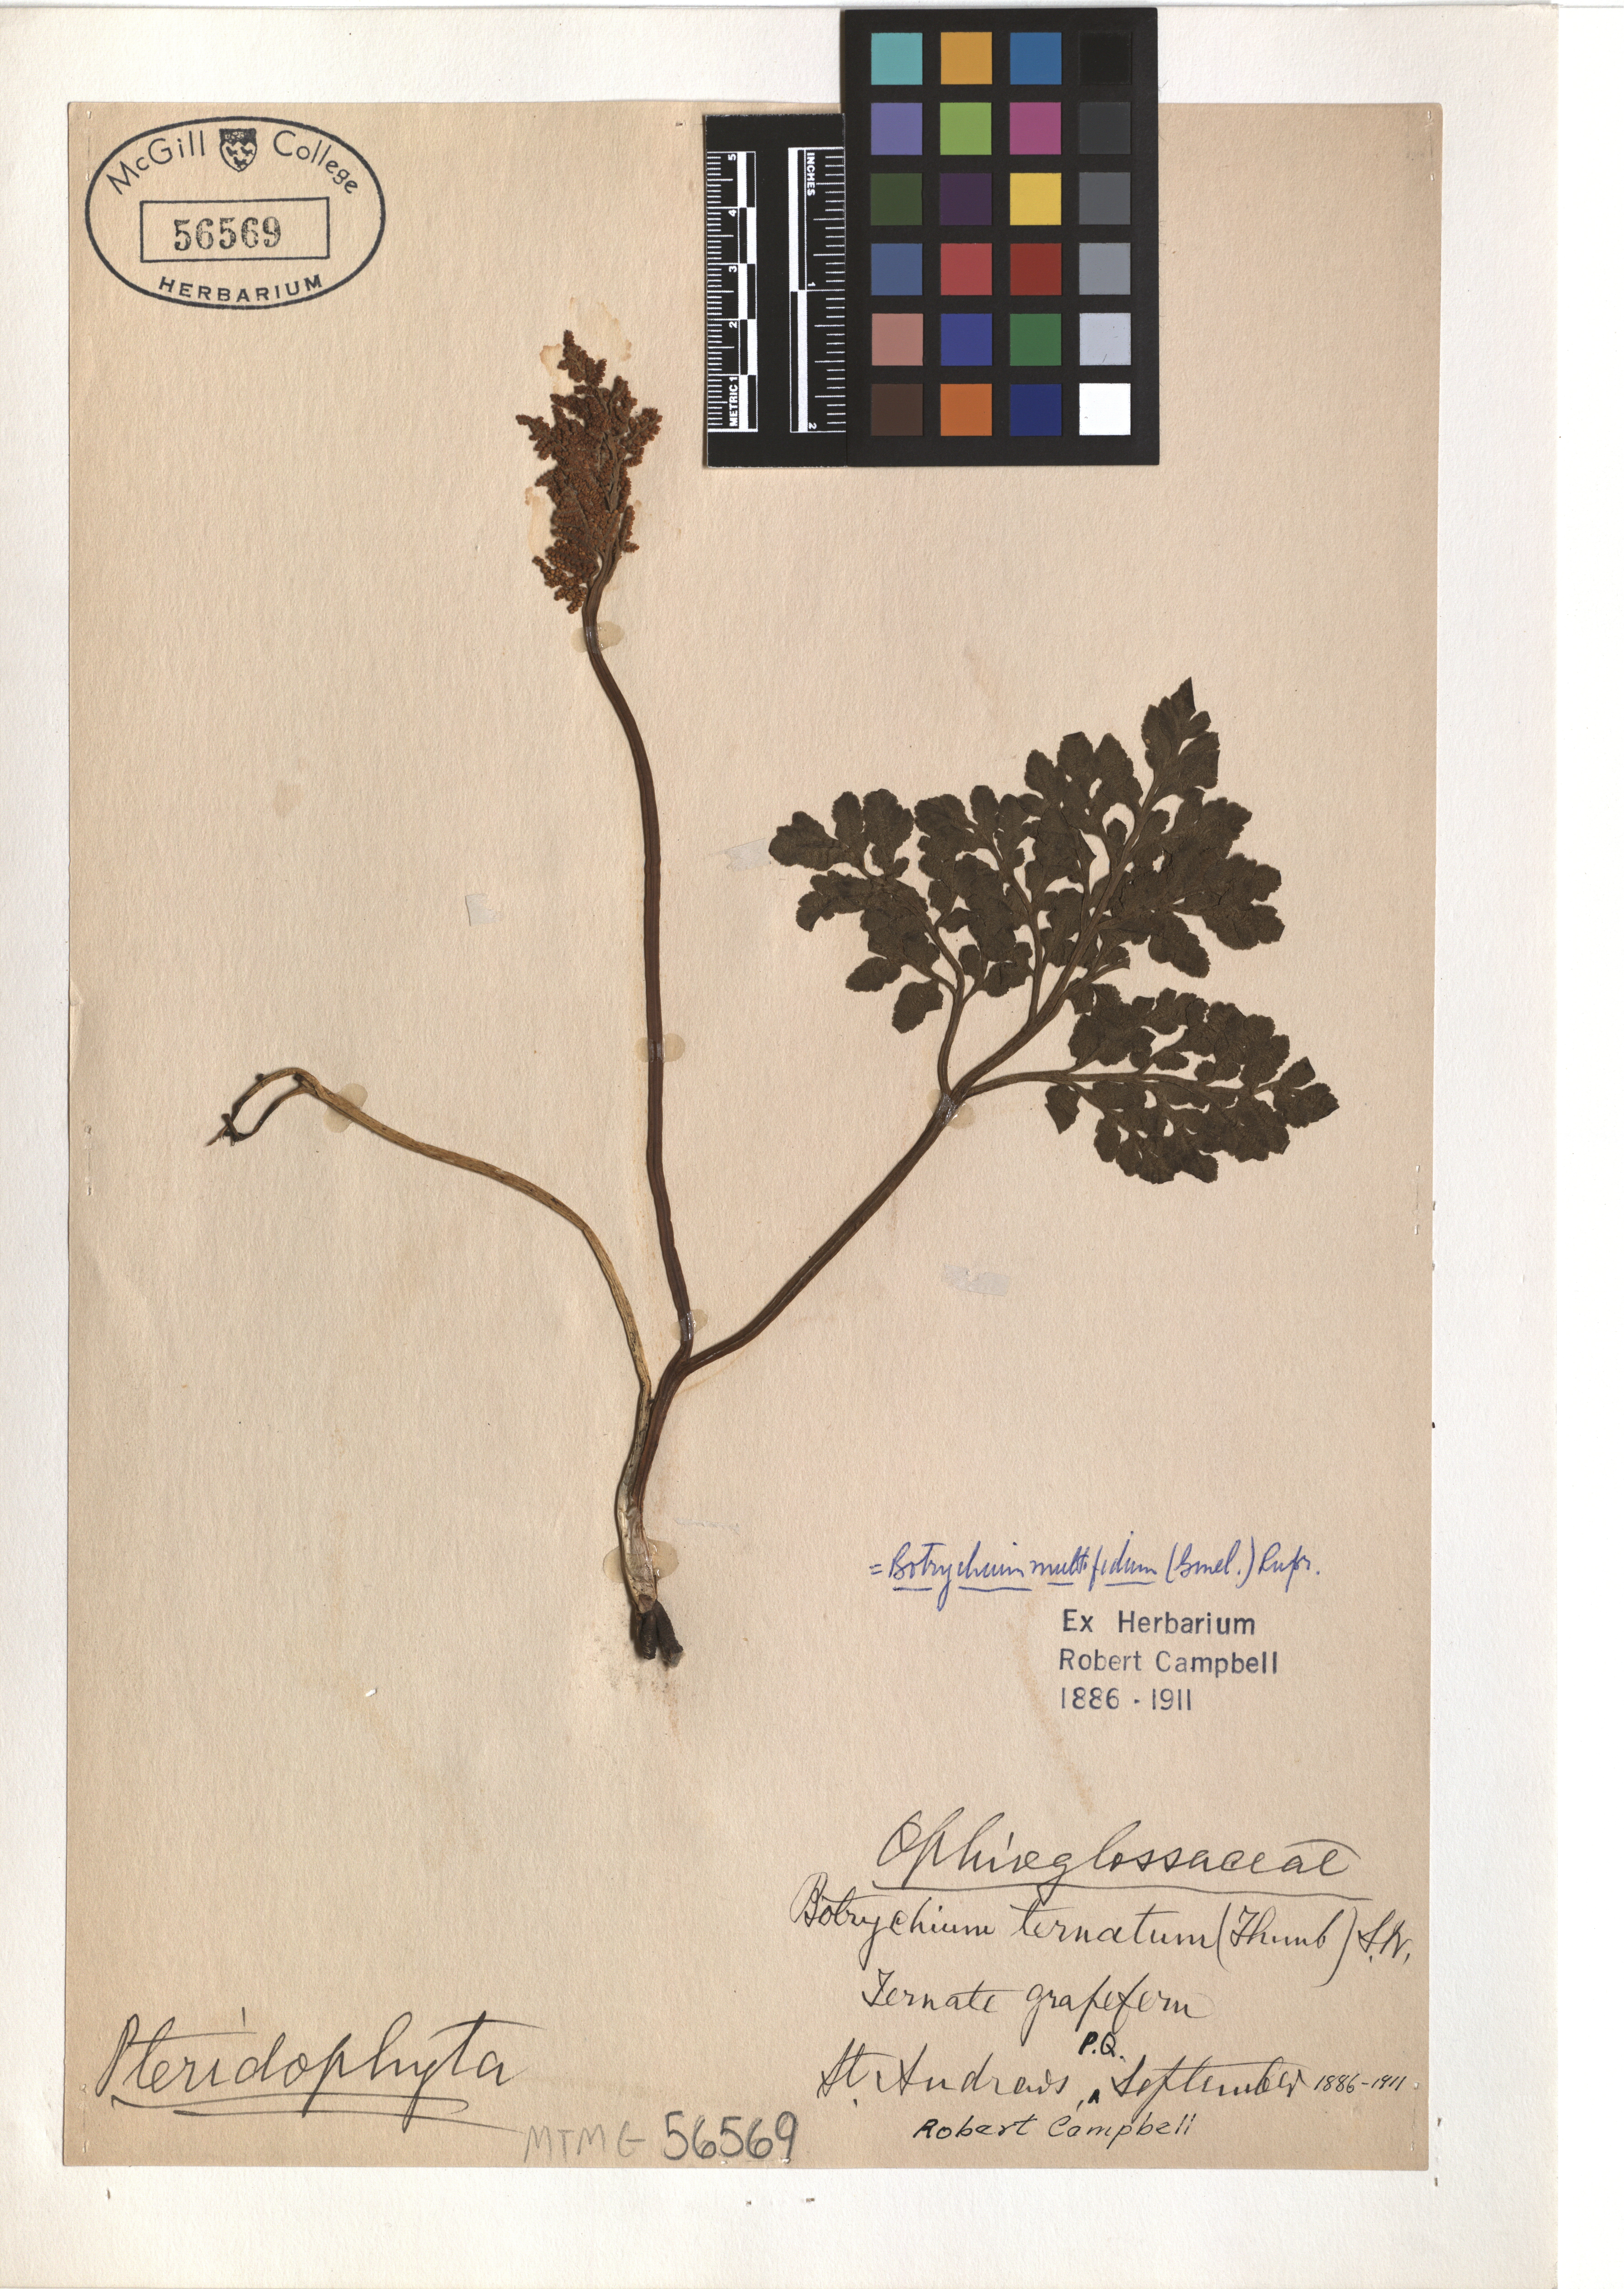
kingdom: Plantae
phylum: Tracheophyta
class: Polypodiopsida
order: Ophioglossales
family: Ophioglossaceae
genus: Sceptridium
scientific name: Sceptridium multifidum
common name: Leathery grape fern
